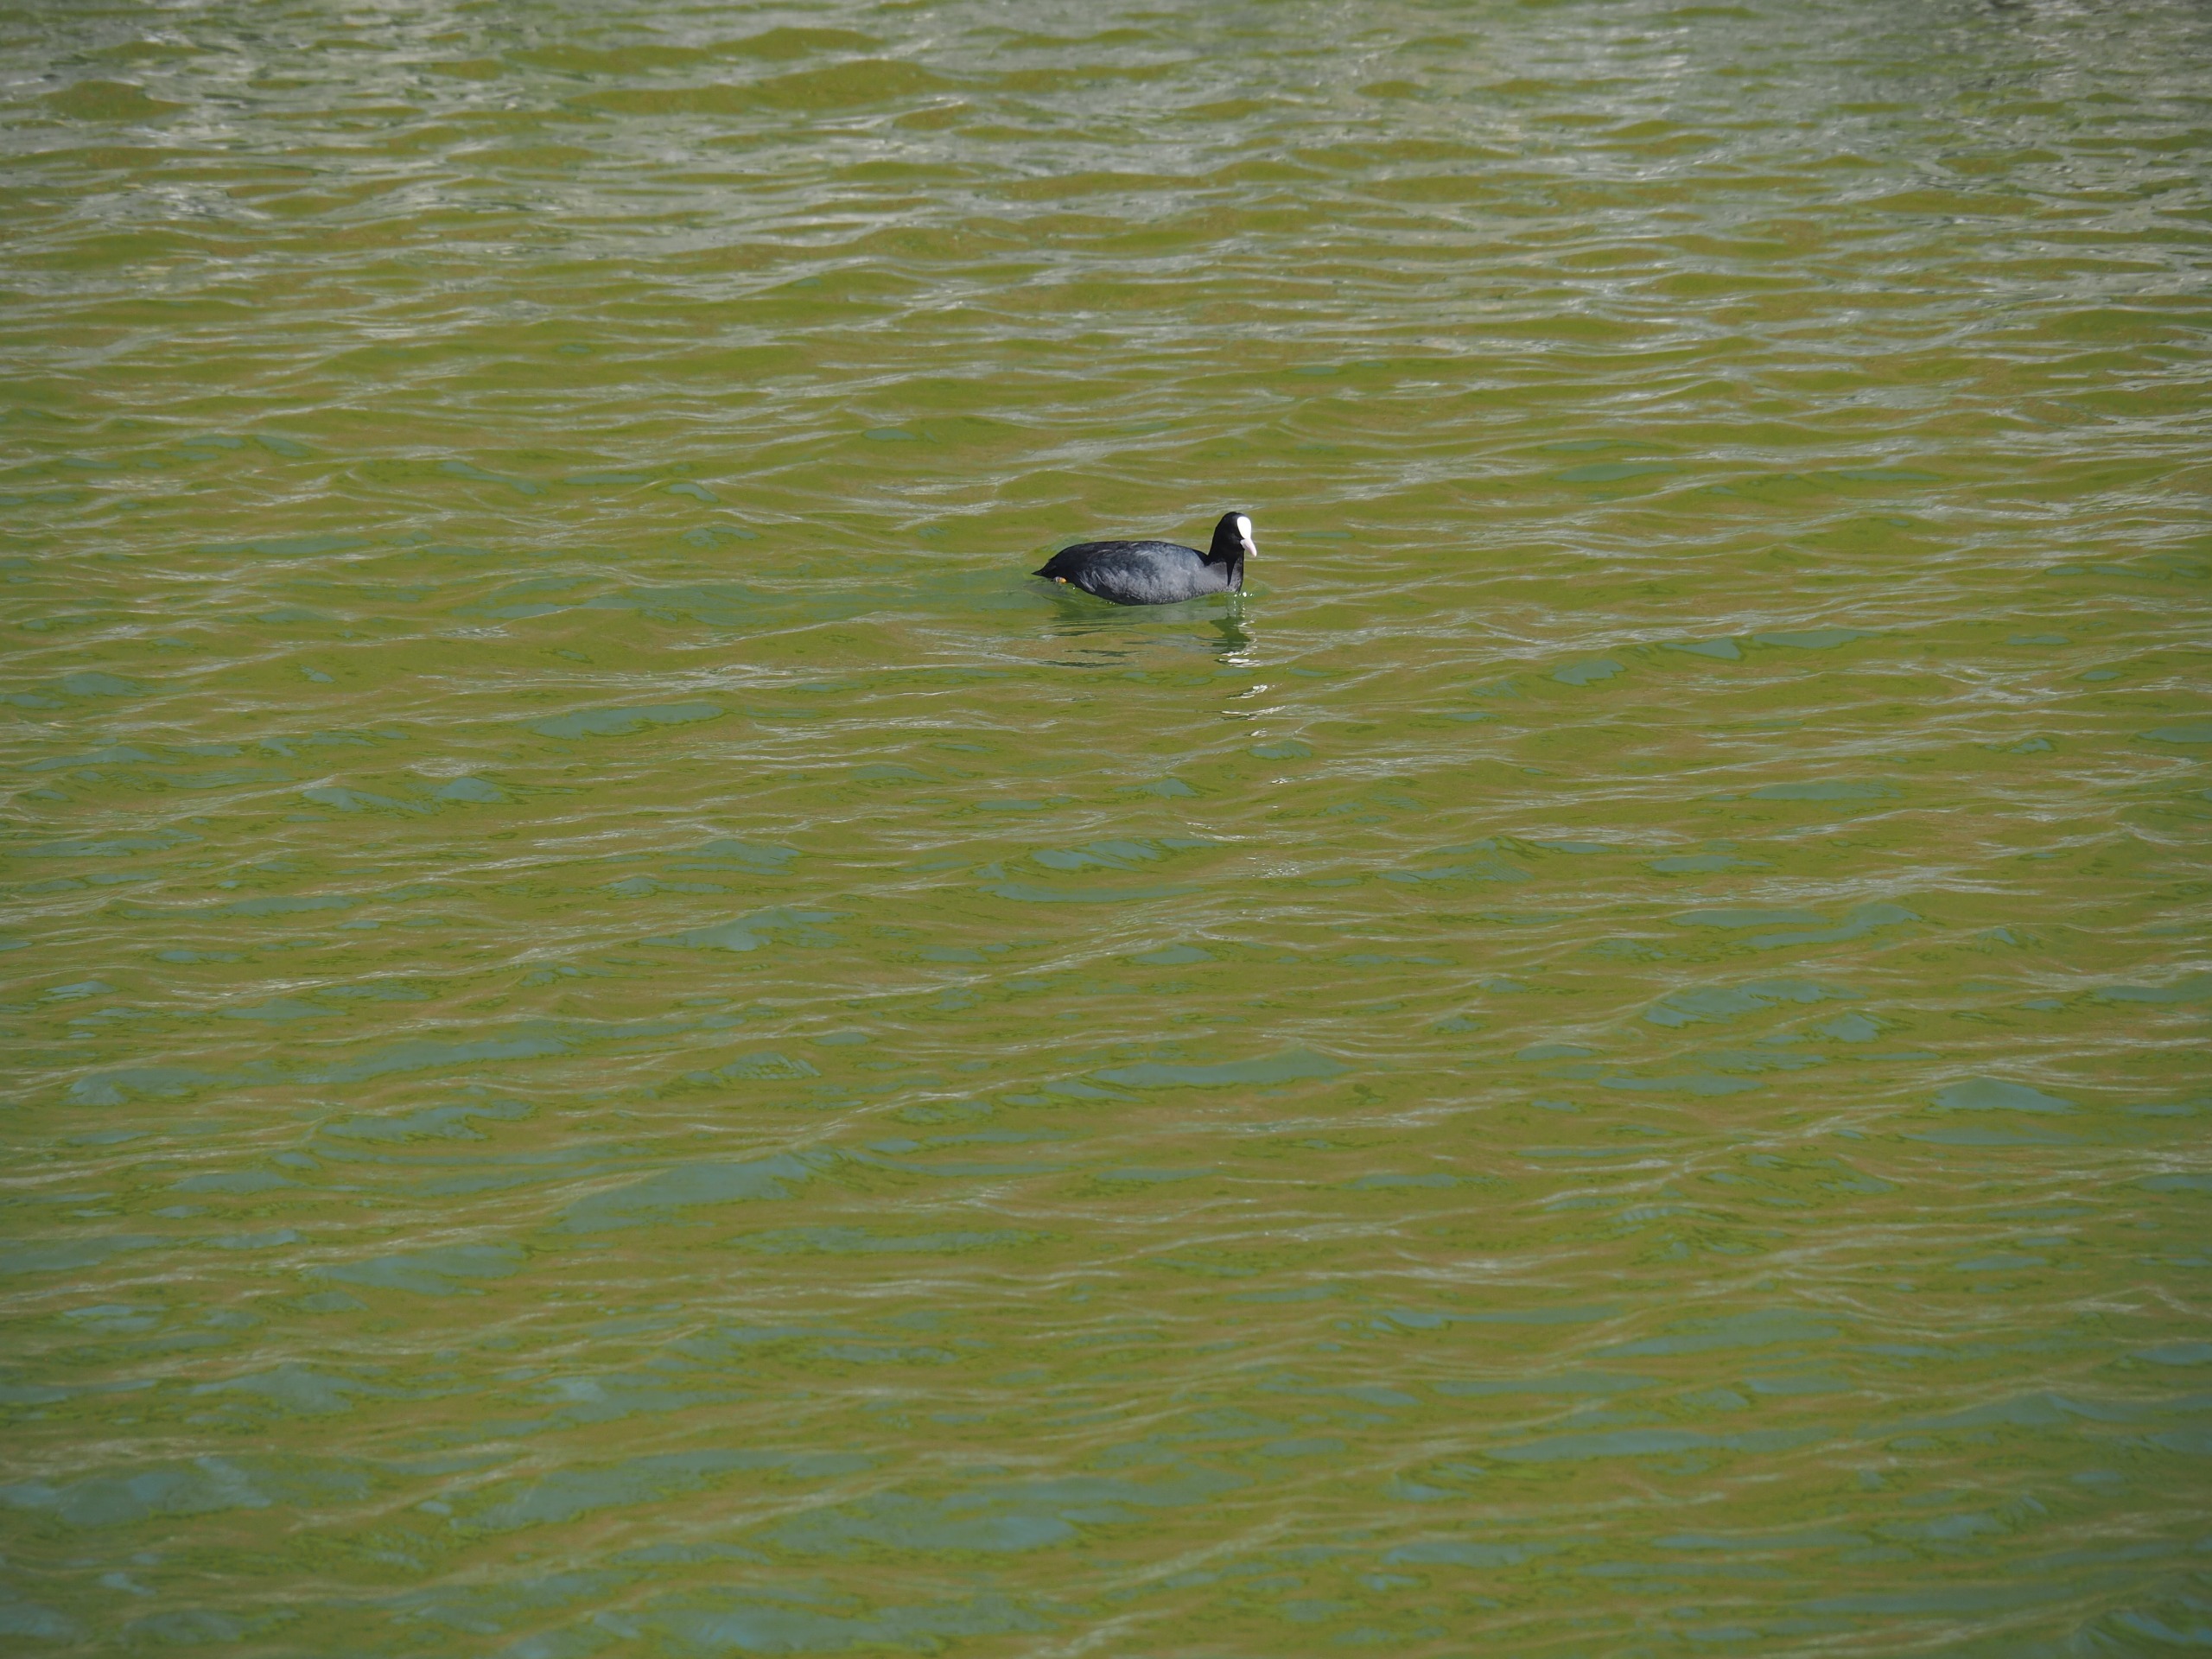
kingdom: Animalia
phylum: Chordata
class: Aves
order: Gruiformes
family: Rallidae
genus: Fulica
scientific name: Fulica atra
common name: Blishøne
